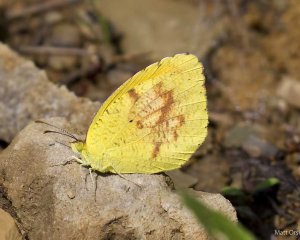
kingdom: Animalia
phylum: Arthropoda
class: Insecta
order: Lepidoptera
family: Pieridae
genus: Abaeis
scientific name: Abaeis nicippe
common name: Sleepy Orange
